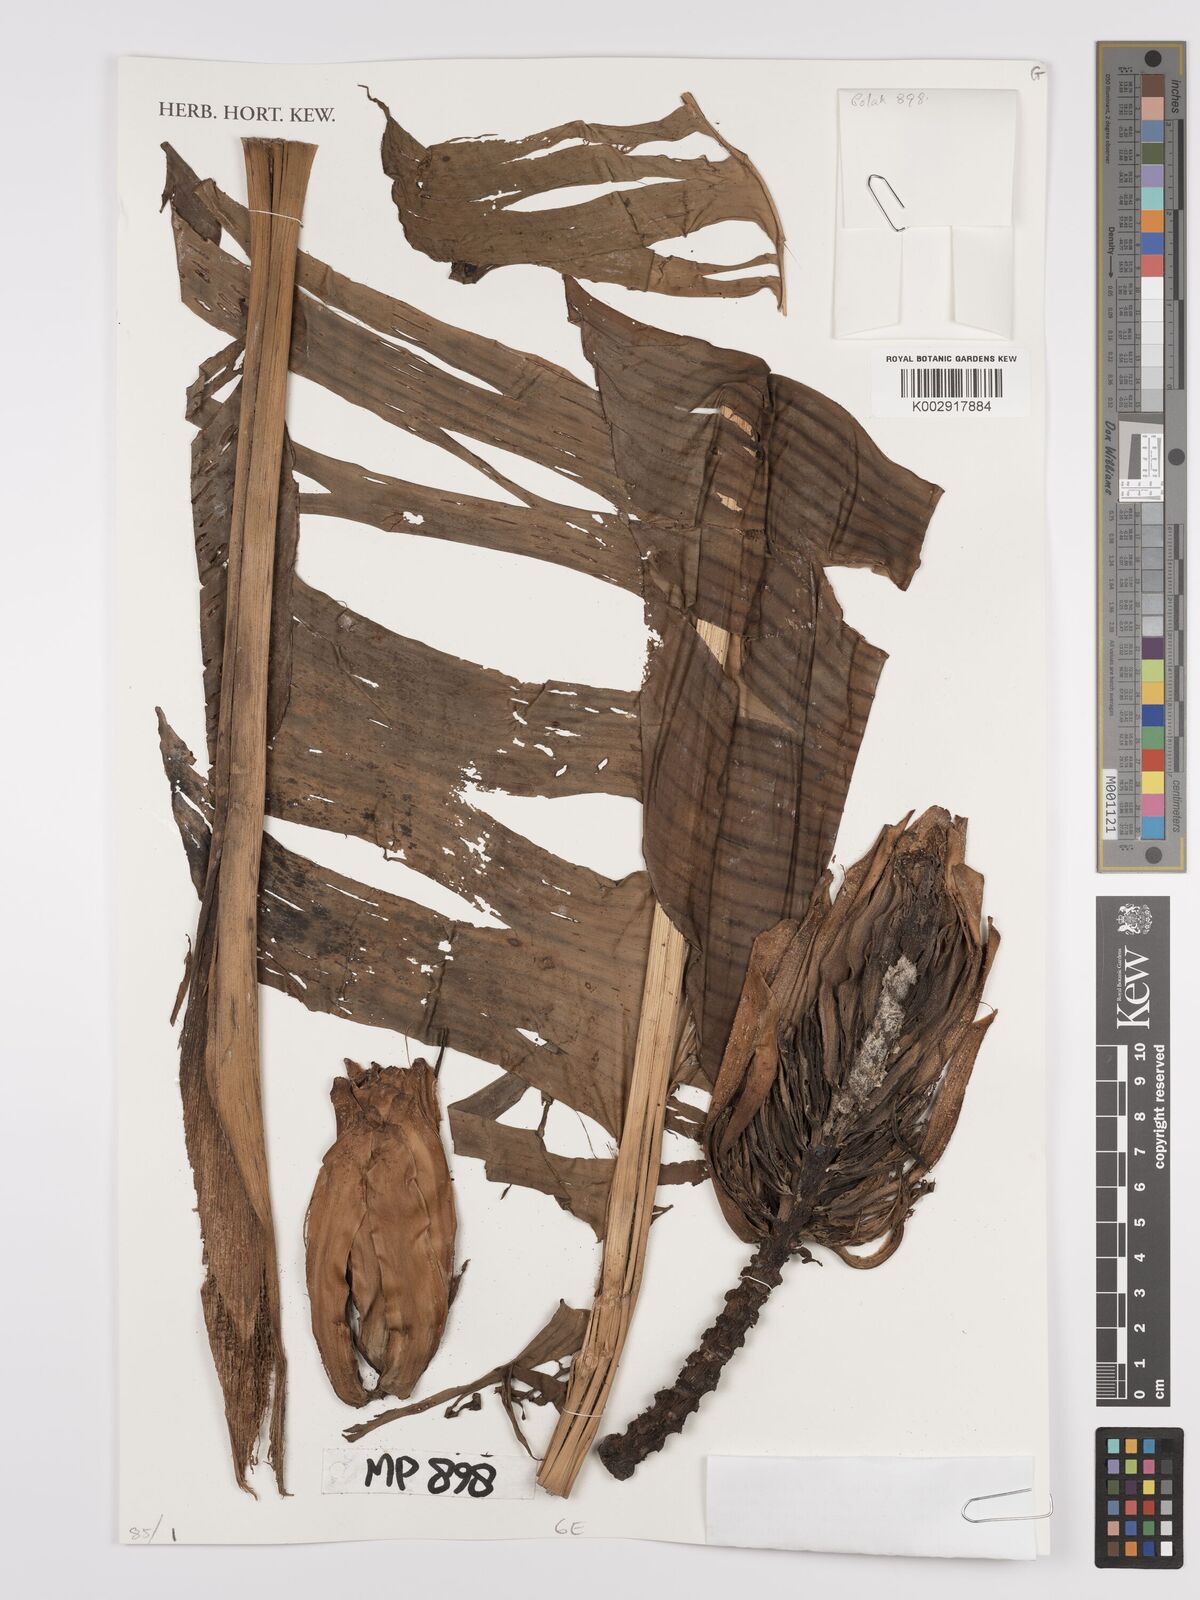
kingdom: Plantae
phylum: Tracheophyta
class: Liliopsida
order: Zingiberales
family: Musaceae
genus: Musa
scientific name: Musa
